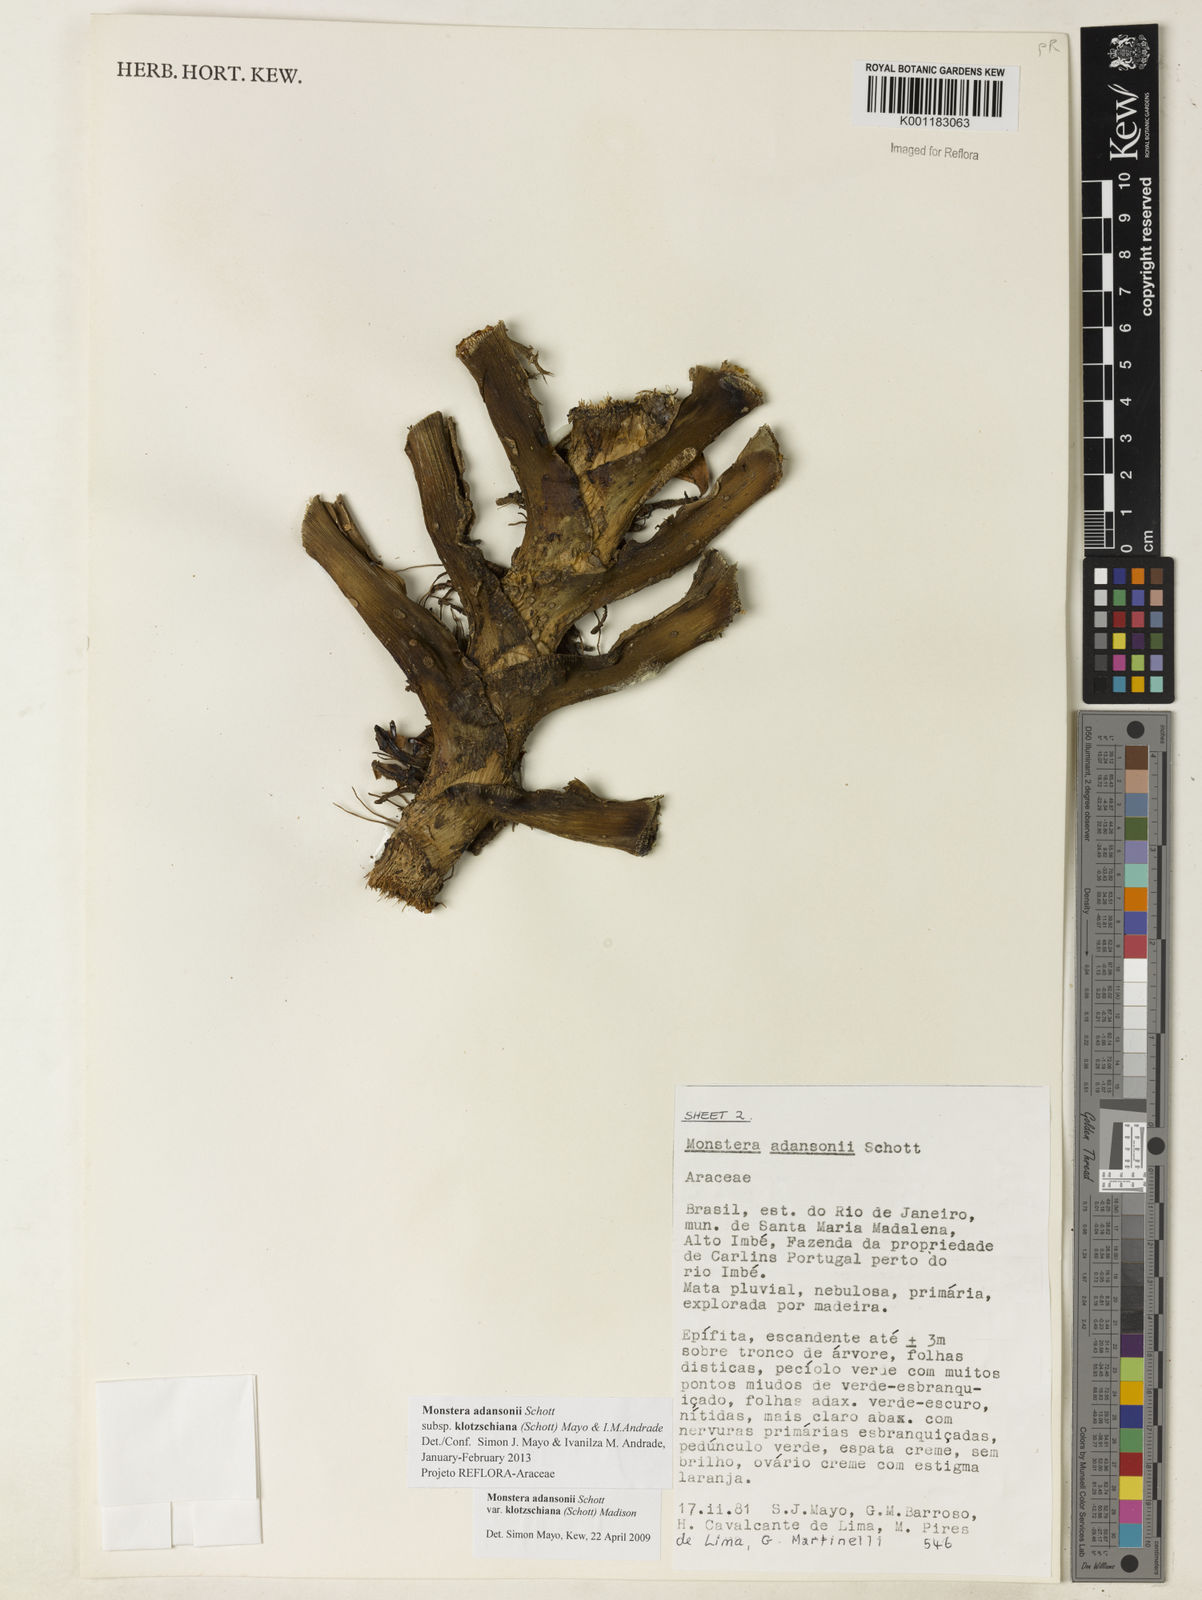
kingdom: Plantae
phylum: Tracheophyta
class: Liliopsida
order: Alismatales
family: Araceae
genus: Monstera
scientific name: Monstera adansonii
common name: Tarovine
